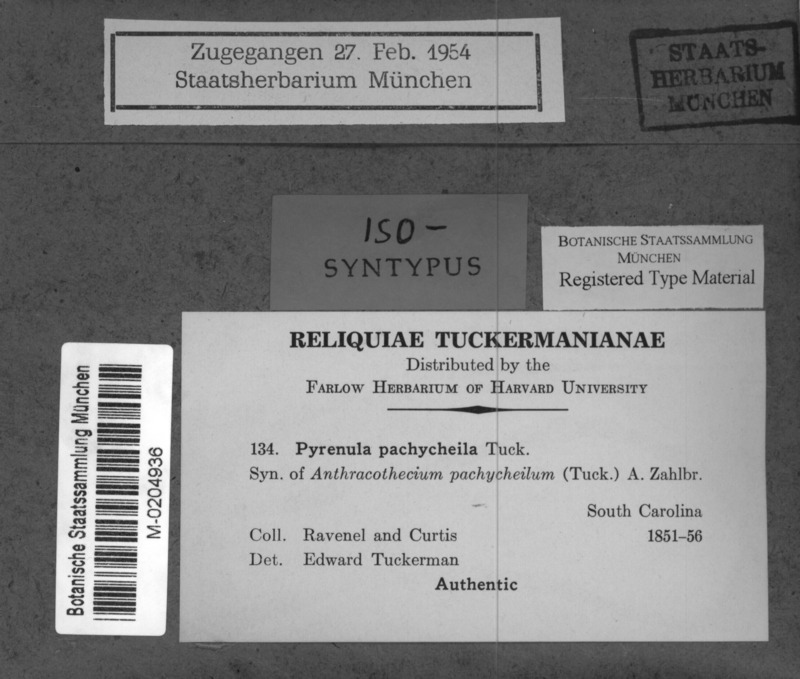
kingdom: Fungi
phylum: Ascomycota
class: Eurotiomycetes
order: Pyrenulales
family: Pyrenulaceae
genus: Pyrenula
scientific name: Pyrenula pyrenuloides
